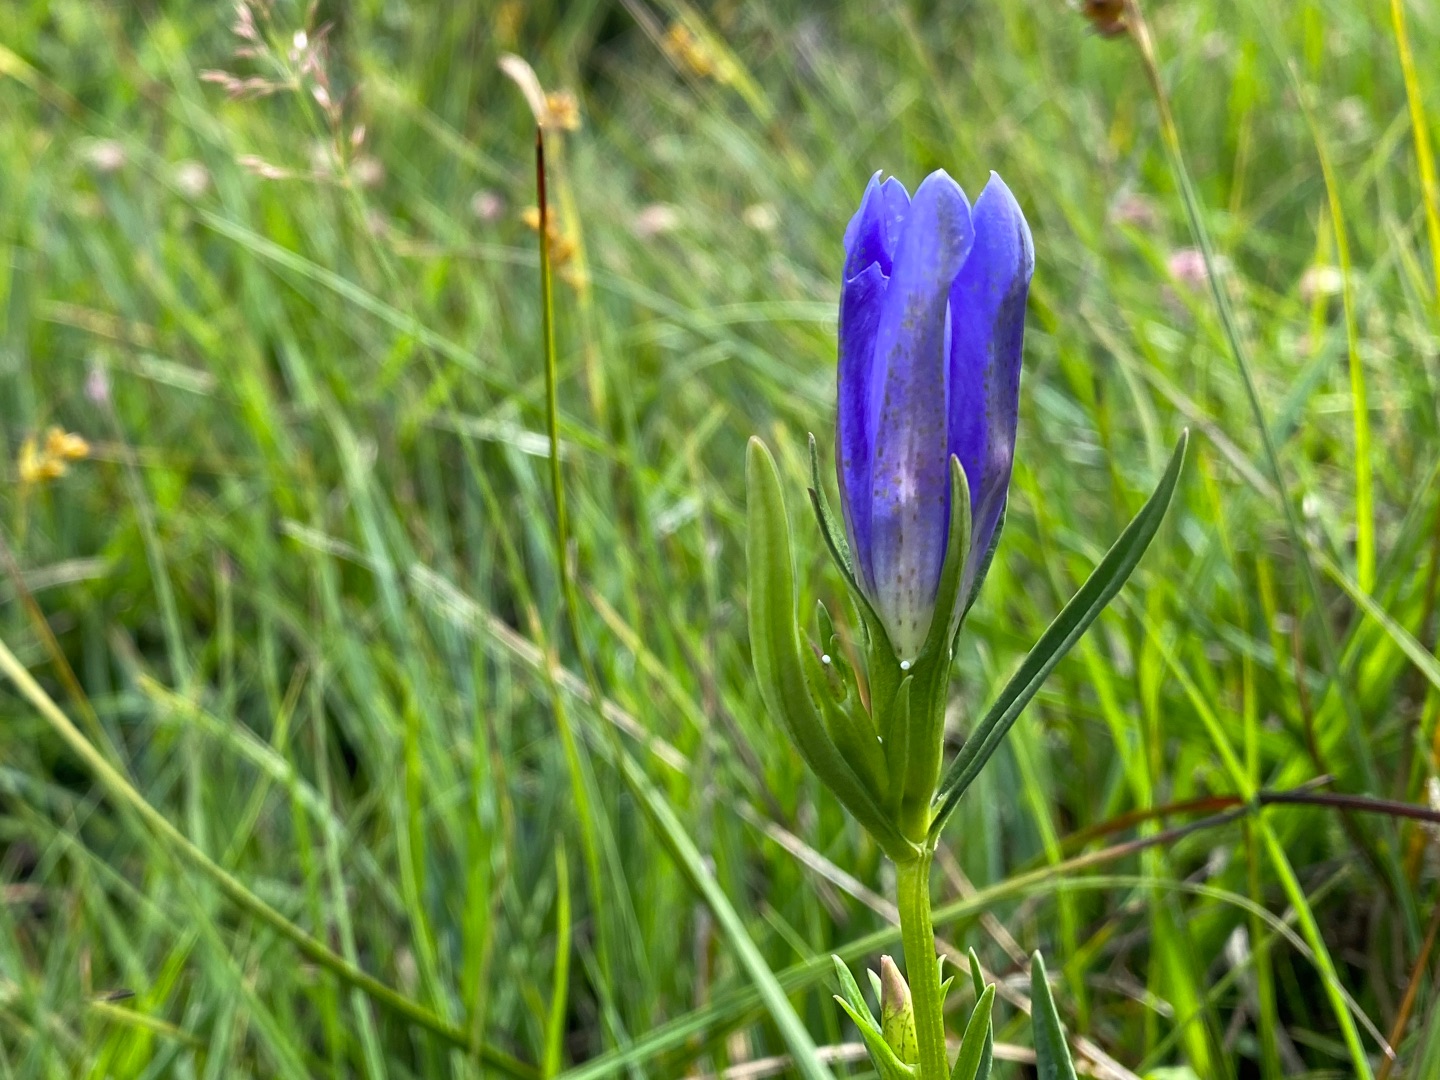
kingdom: Animalia
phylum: Arthropoda
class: Insecta
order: Lepidoptera
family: Lycaenidae
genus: Maculinea
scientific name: Maculinea alcon
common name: Ensianblåfugl
